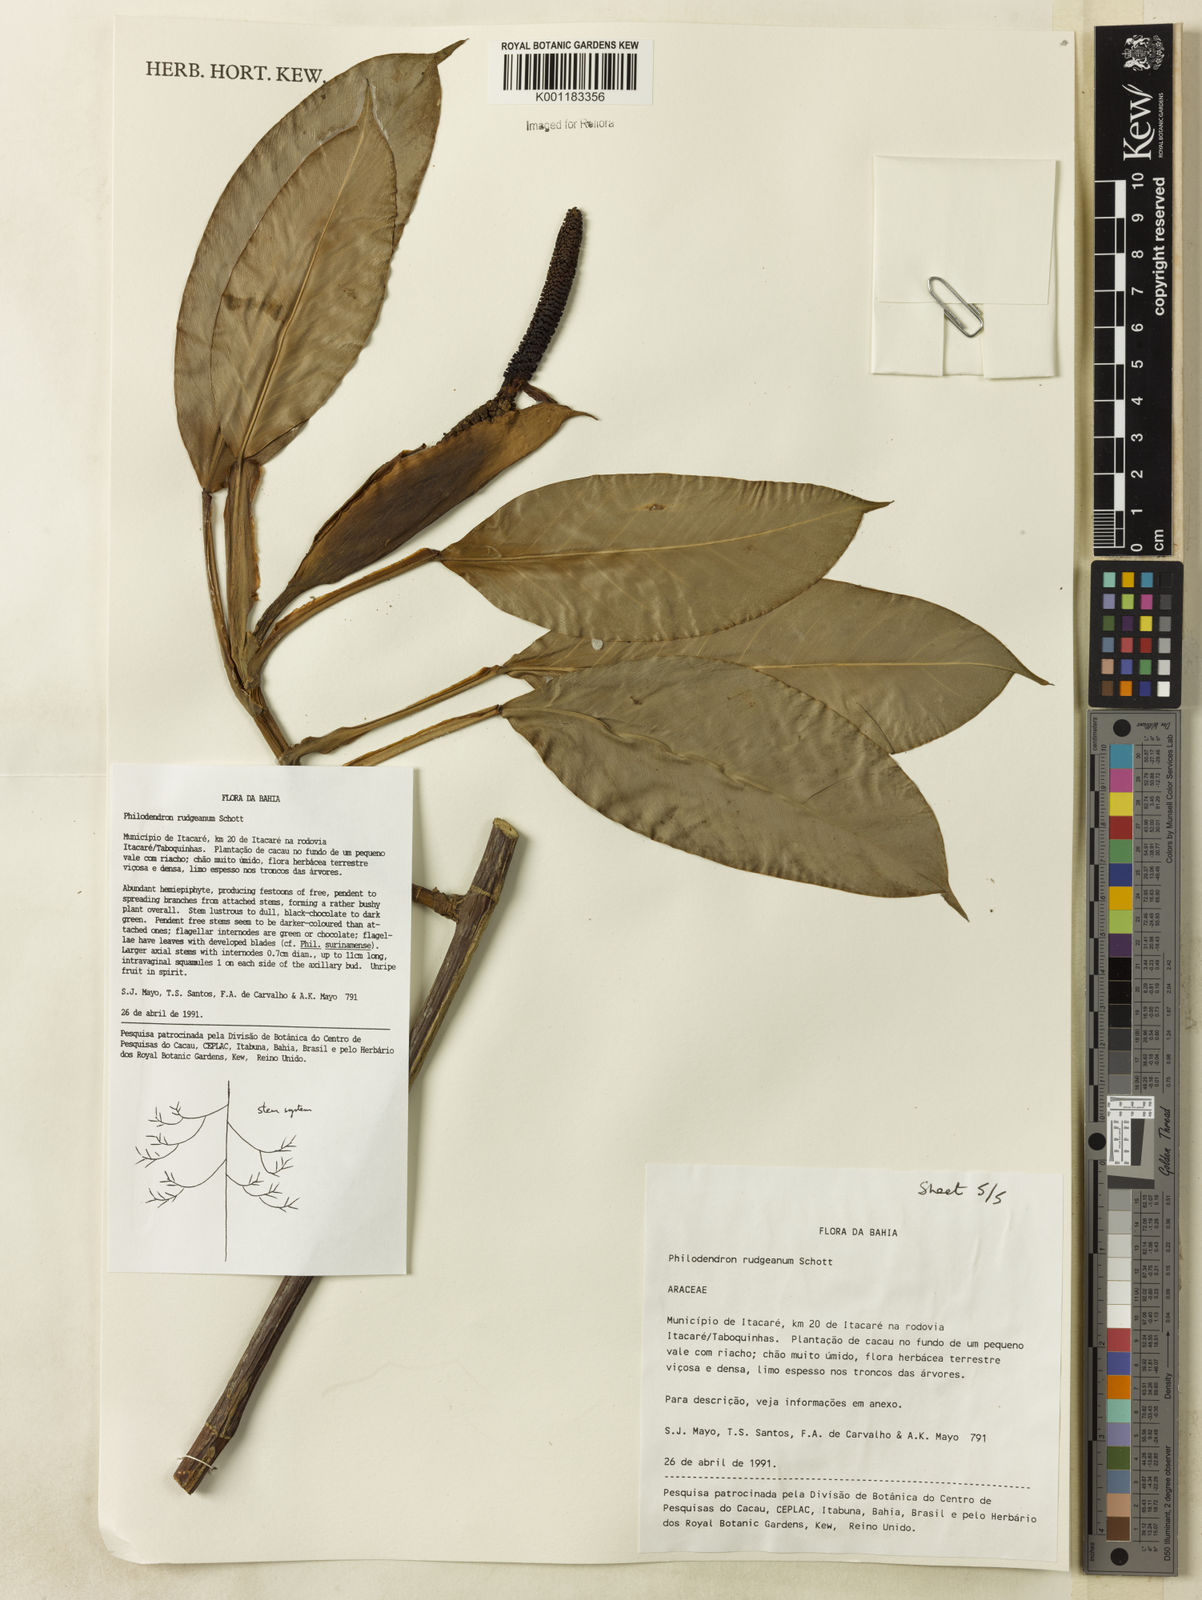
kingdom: Plantae
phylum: Tracheophyta
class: Liliopsida
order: Alismatales
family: Araceae
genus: Philodendron
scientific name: Philodendron rudgeanum
